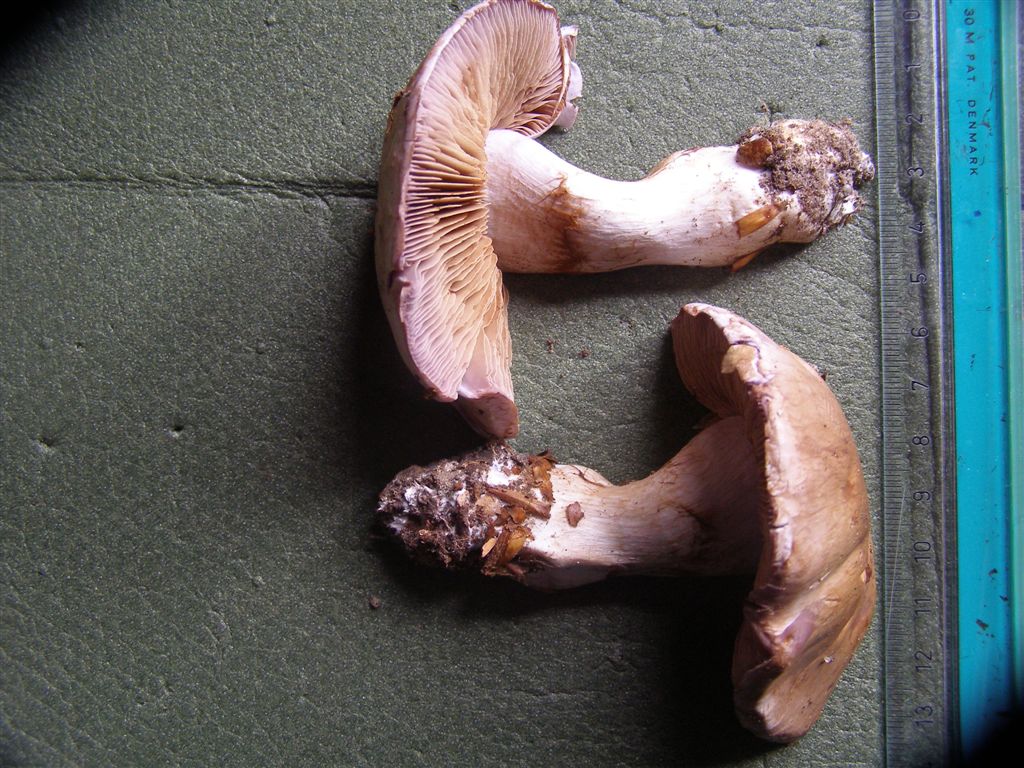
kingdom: Fungi
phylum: Basidiomycota
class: Agaricomycetes
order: Agaricales
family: Cortinariaceae
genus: Cortinarius
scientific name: Cortinarius largus
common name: violetrandet slørhat
